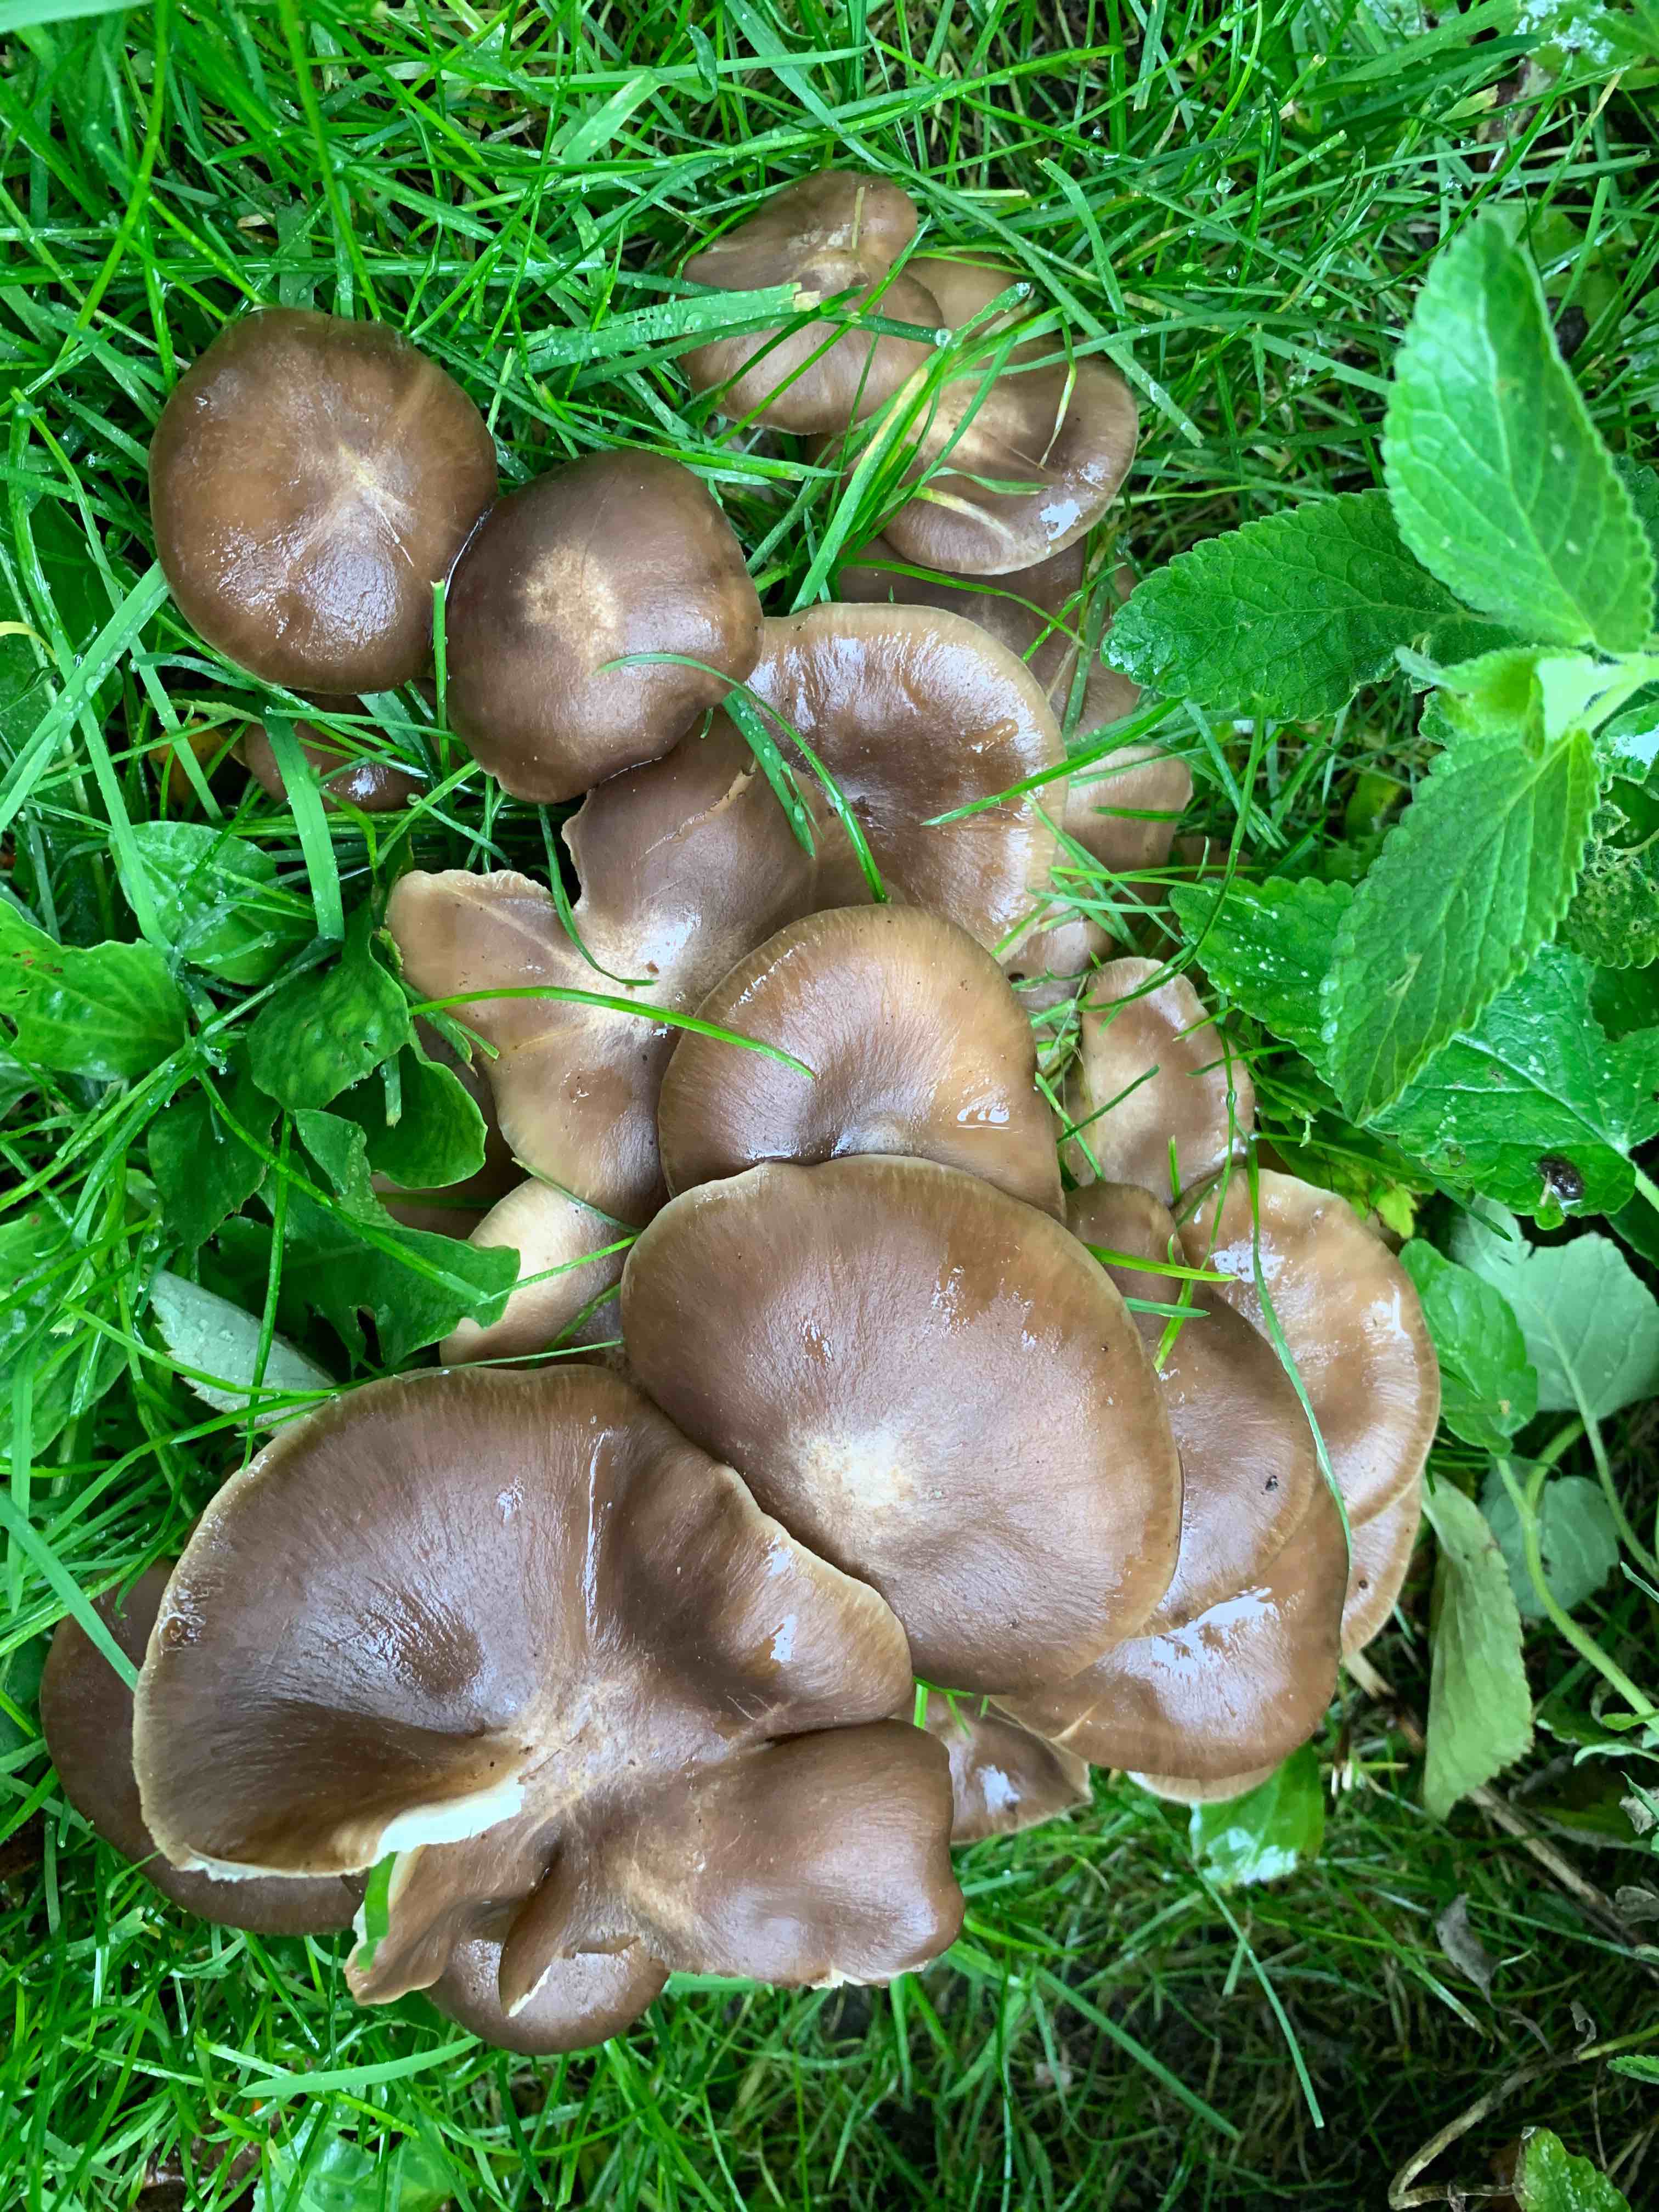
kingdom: Fungi
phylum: Basidiomycota
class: Agaricomycetes
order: Agaricales
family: Lyophyllaceae
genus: Lyophyllum
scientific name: Lyophyllum decastes
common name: røggrå gråblad
